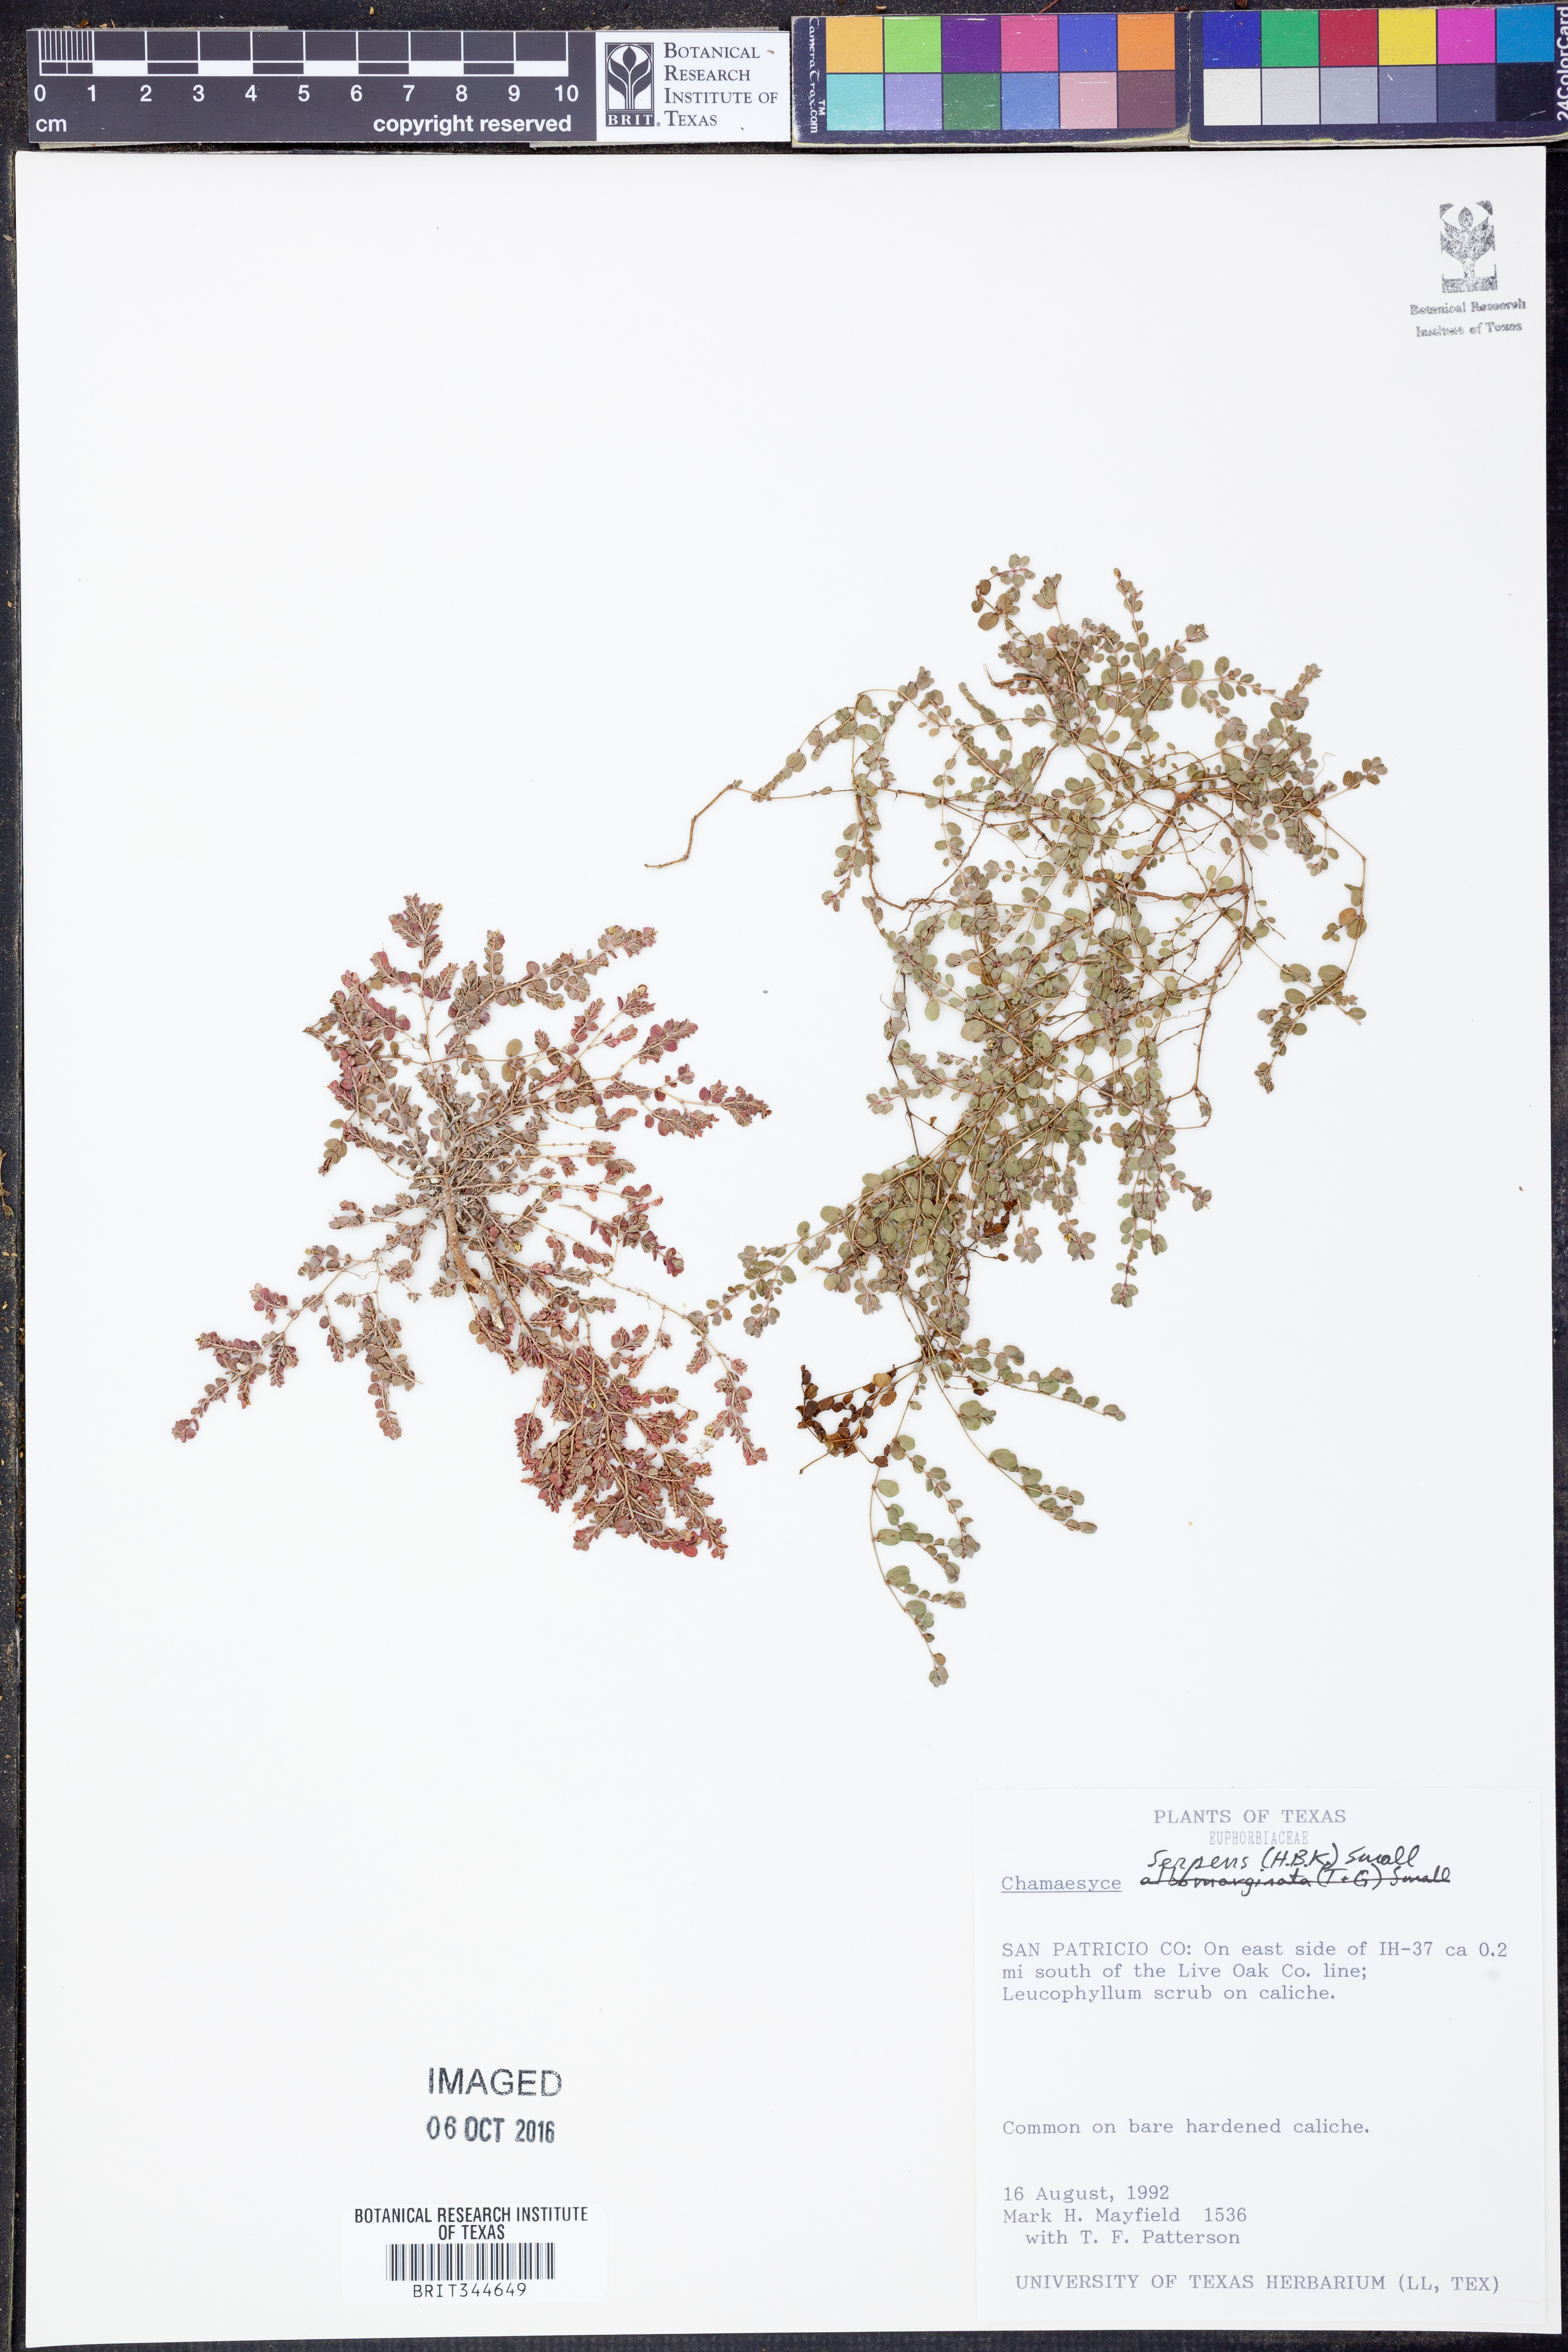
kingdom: Plantae
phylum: Tracheophyta
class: Magnoliopsida
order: Malpighiales
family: Euphorbiaceae
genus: Euphorbia
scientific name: Euphorbia serpens
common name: Matted sandmat
